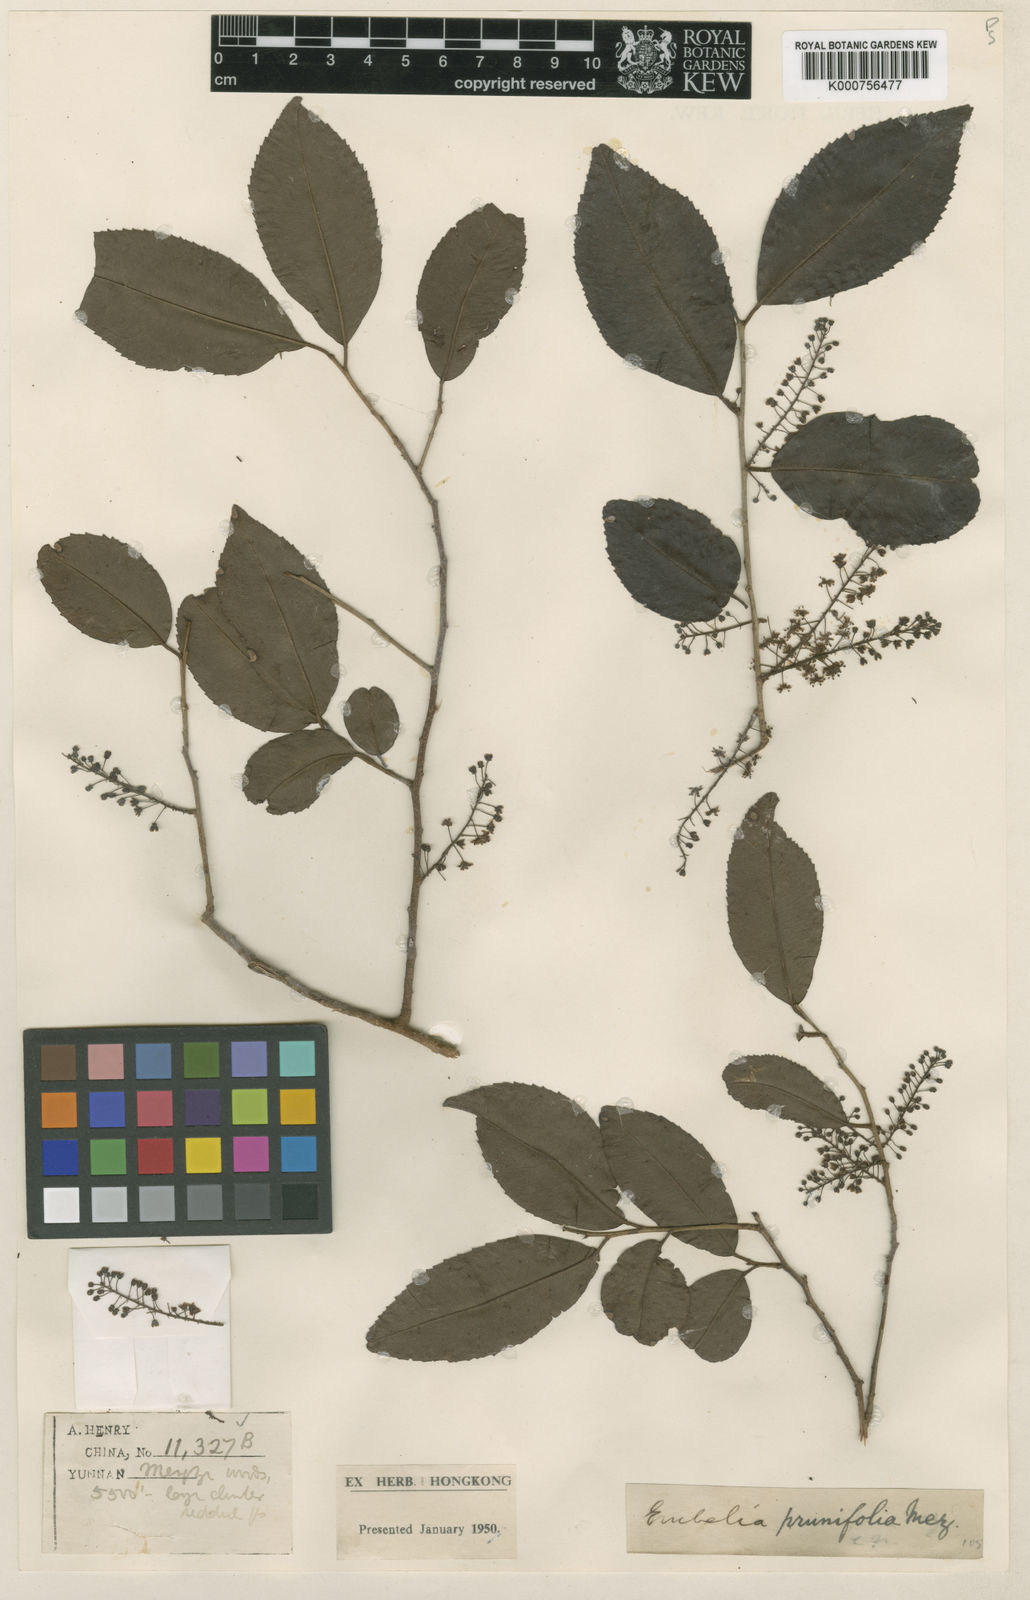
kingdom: Plantae
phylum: Tracheophyta
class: Magnoliopsida
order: Ericales
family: Primulaceae
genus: Embelia
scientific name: Embelia vestita
